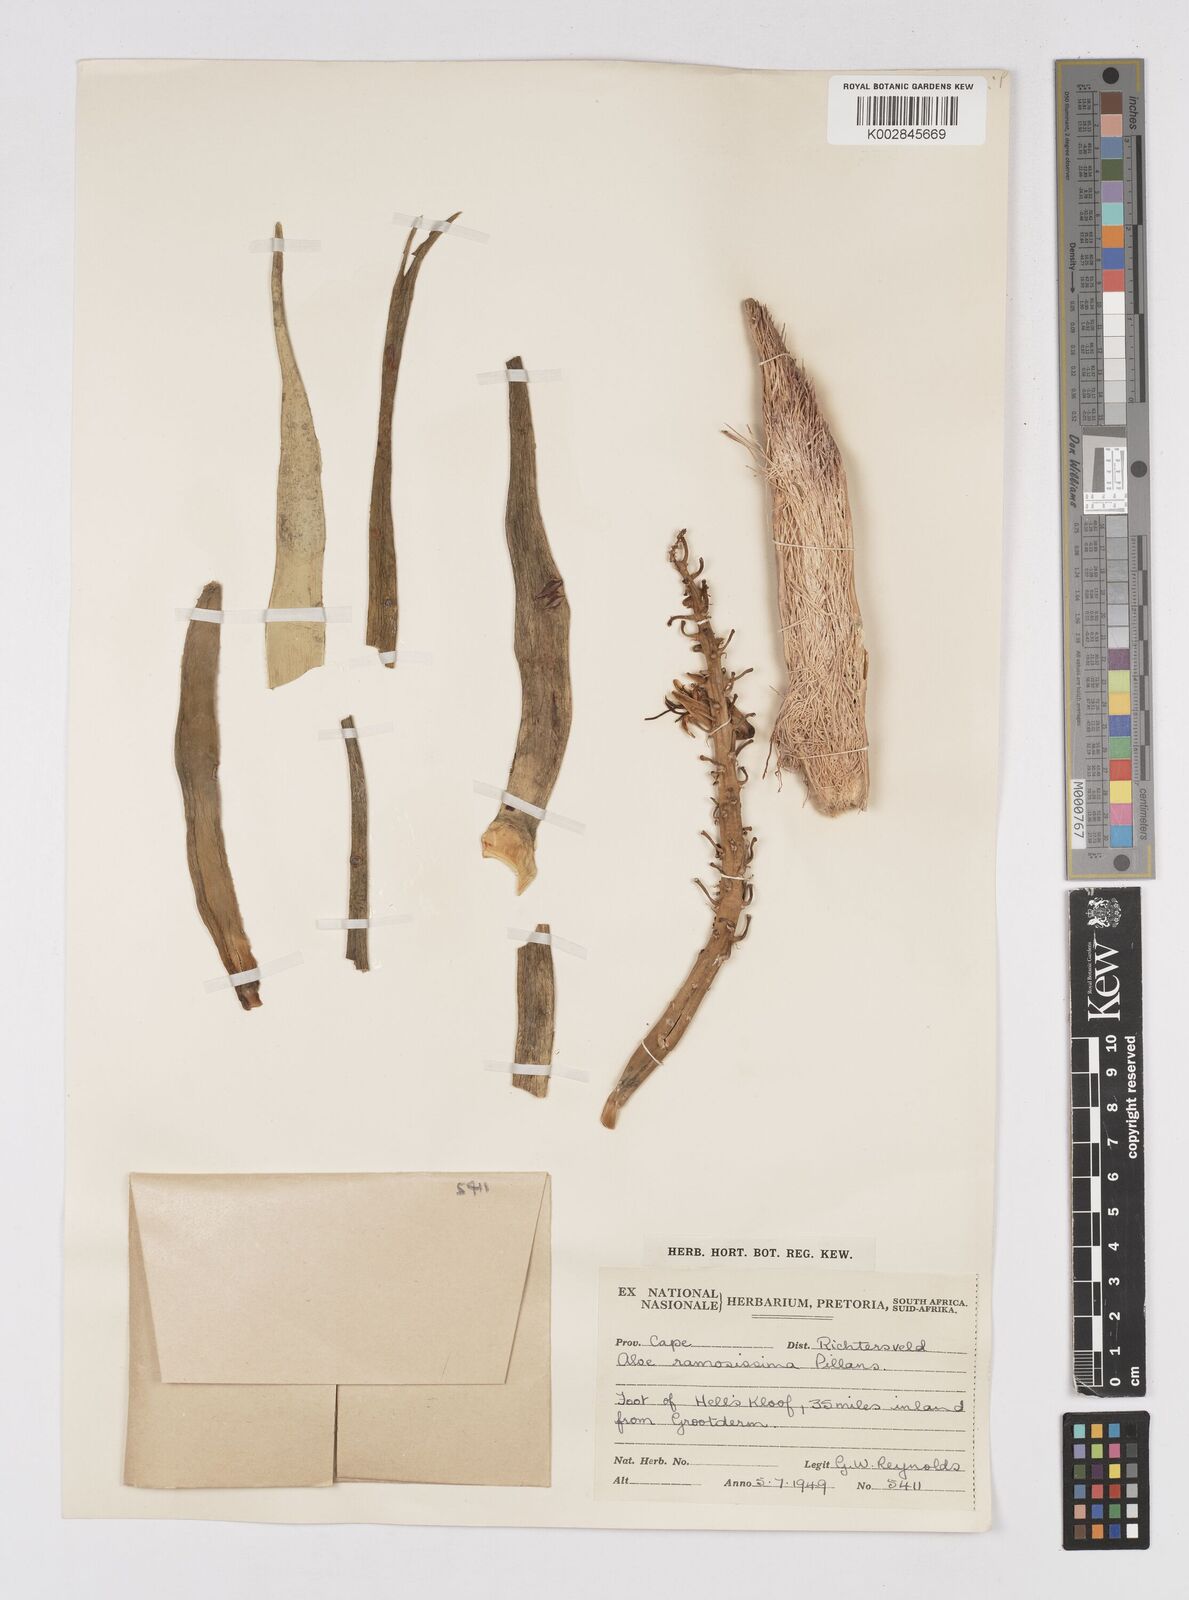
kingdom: Plantae
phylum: Tracheophyta
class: Liliopsida
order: Asparagales
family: Asphodelaceae
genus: Aloidendron
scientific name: Aloidendron ramosissimum
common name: Bush quiver tree
